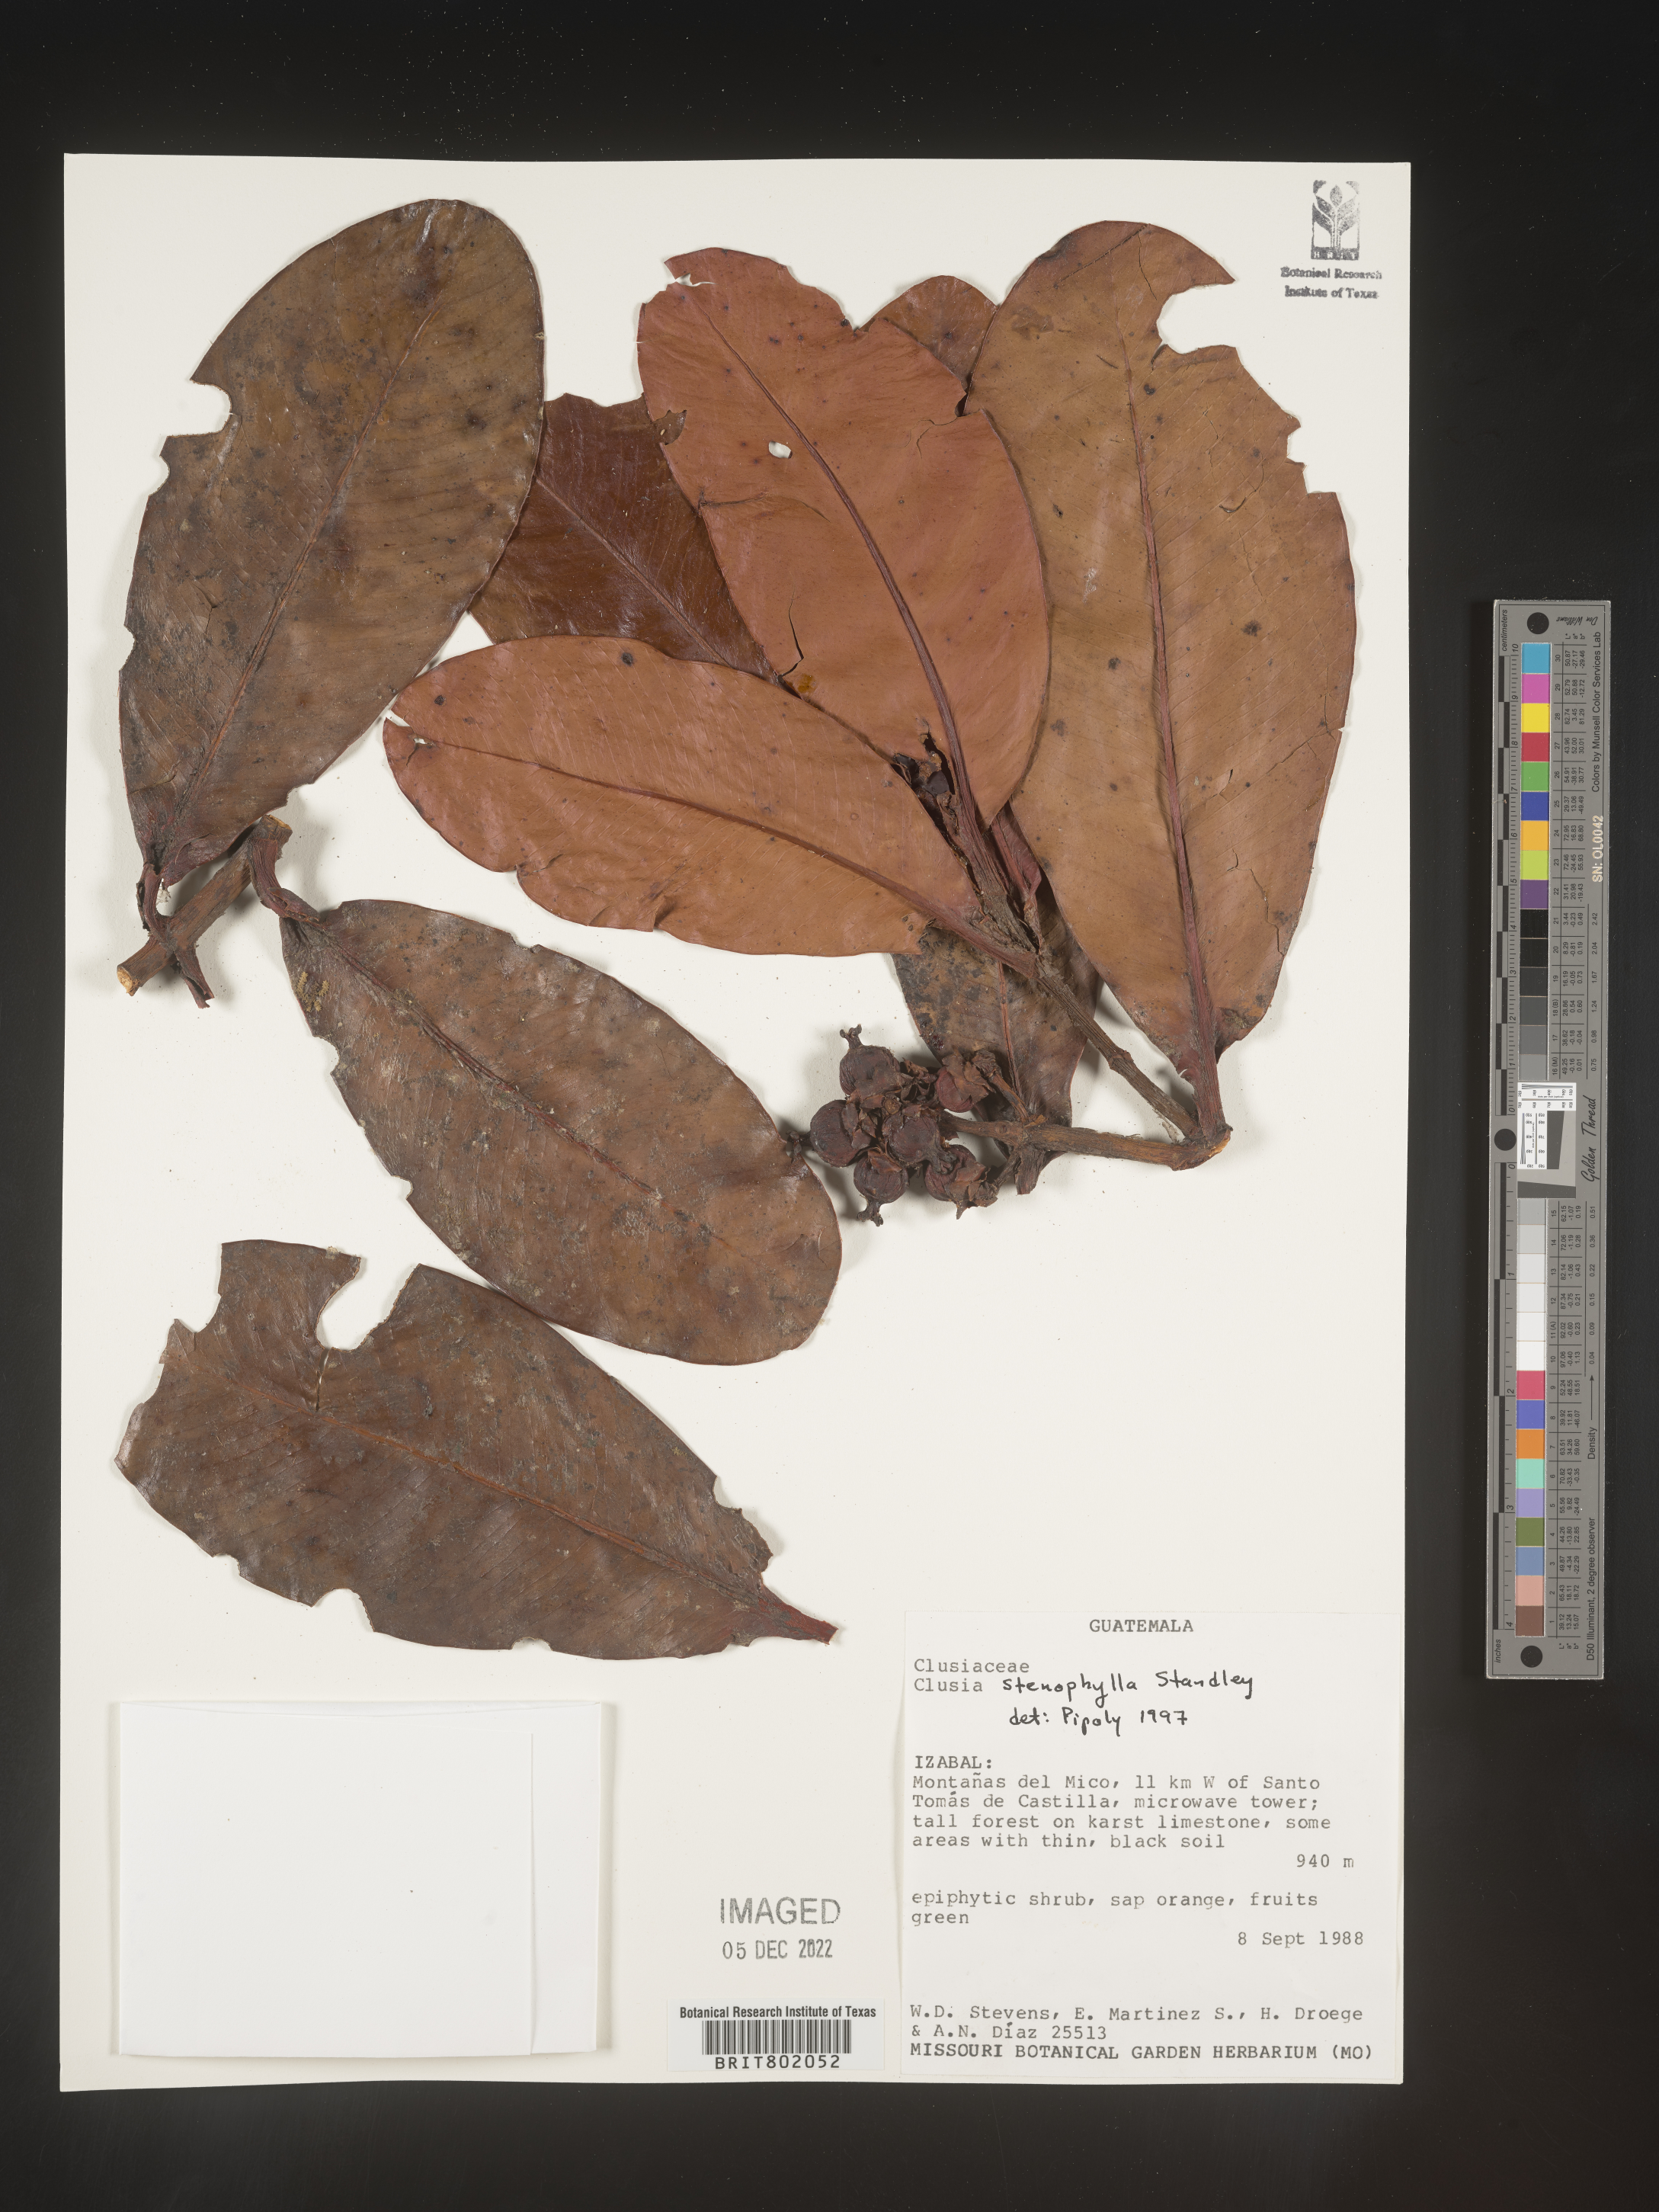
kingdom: Plantae
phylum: Tracheophyta
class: Magnoliopsida
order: Malpighiales
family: Clusiaceae
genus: Clusia
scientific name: Clusia
